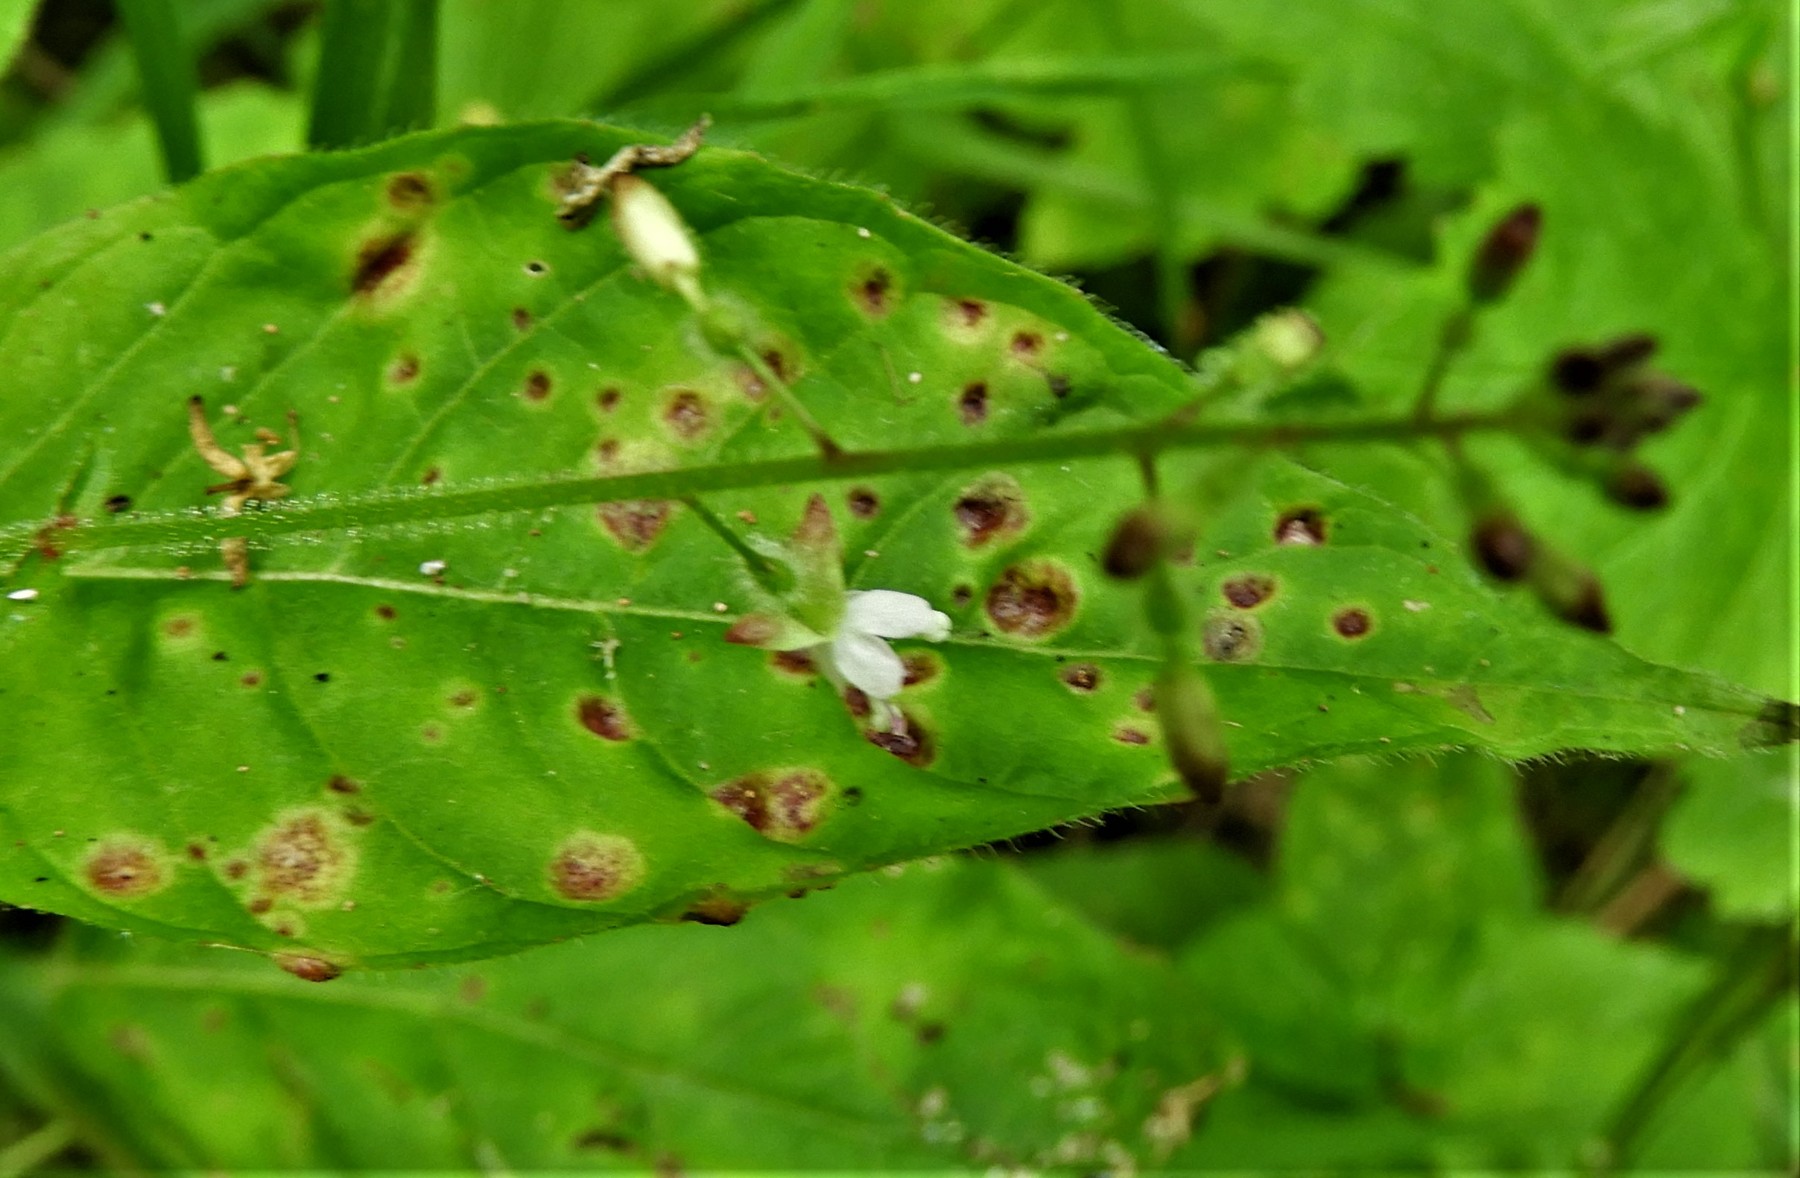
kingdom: Fungi
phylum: Basidiomycota
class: Pucciniomycetes
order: Pucciniales
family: Pucciniaceae
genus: Puccinia
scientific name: Puccinia circaeae
